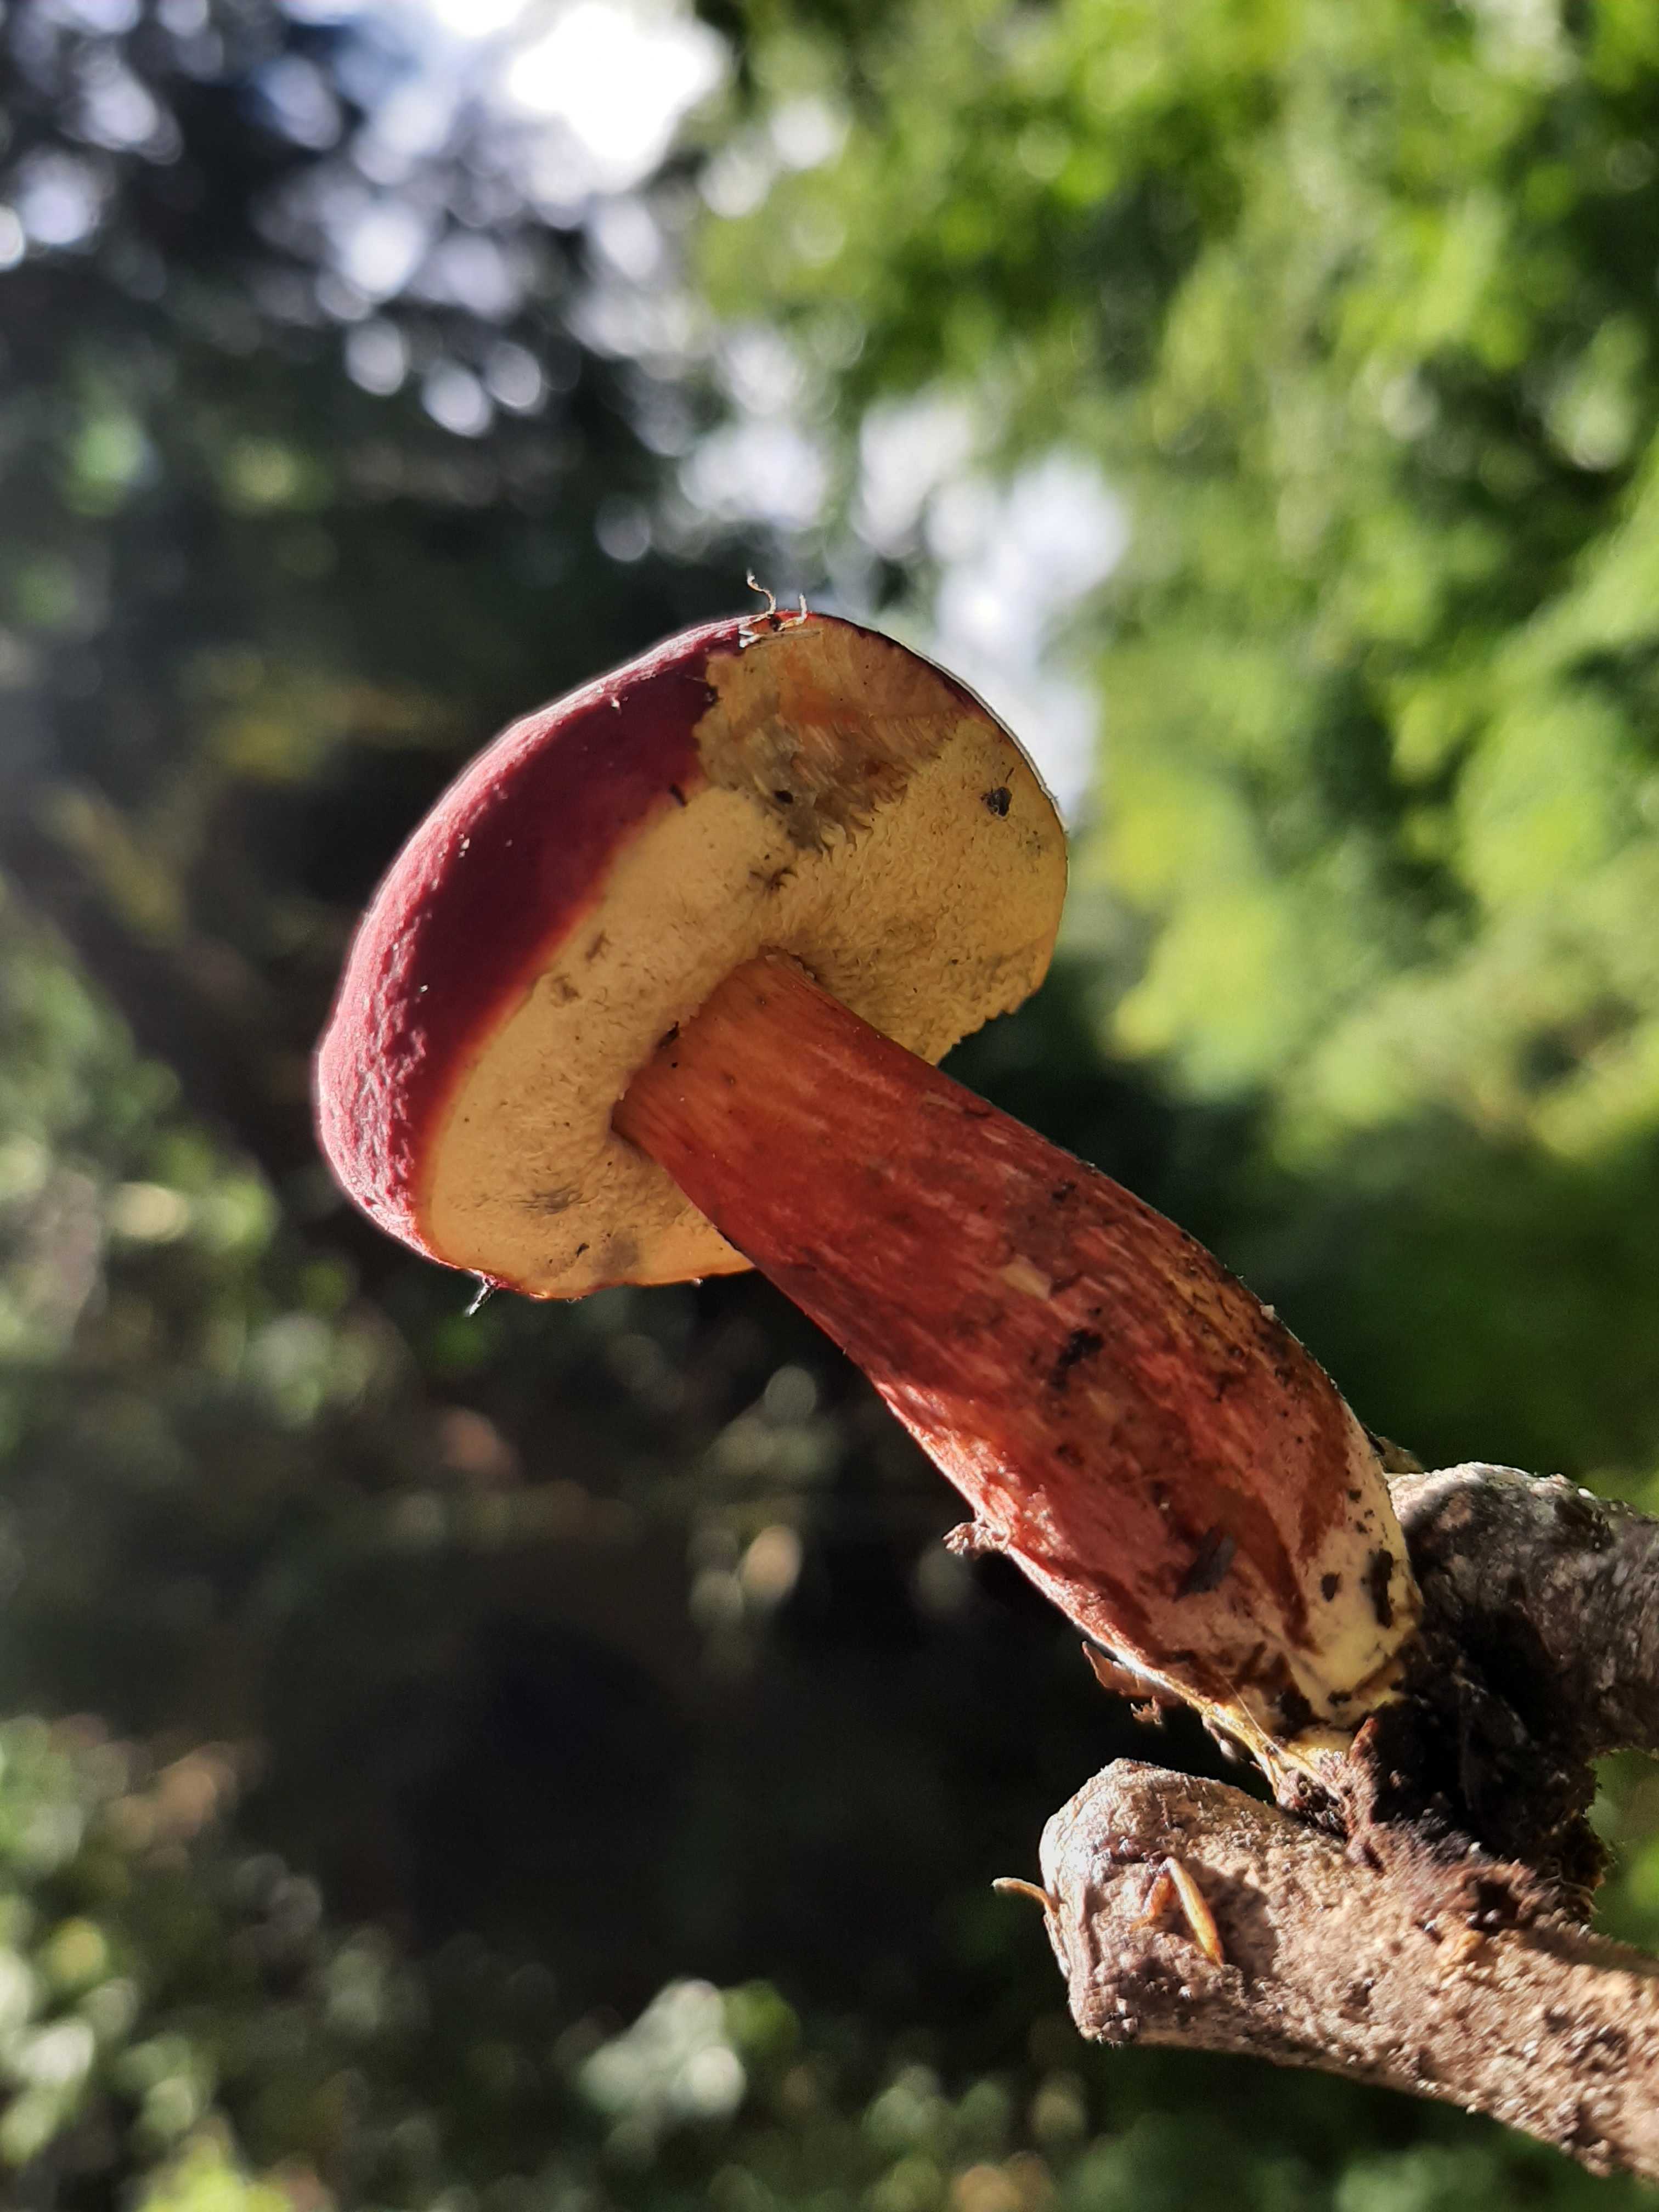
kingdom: Fungi
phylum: Basidiomycota
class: Agaricomycetes
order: Boletales
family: Boletaceae
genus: Hortiboletus
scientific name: Hortiboletus rubellus
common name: blodrød rørhat
